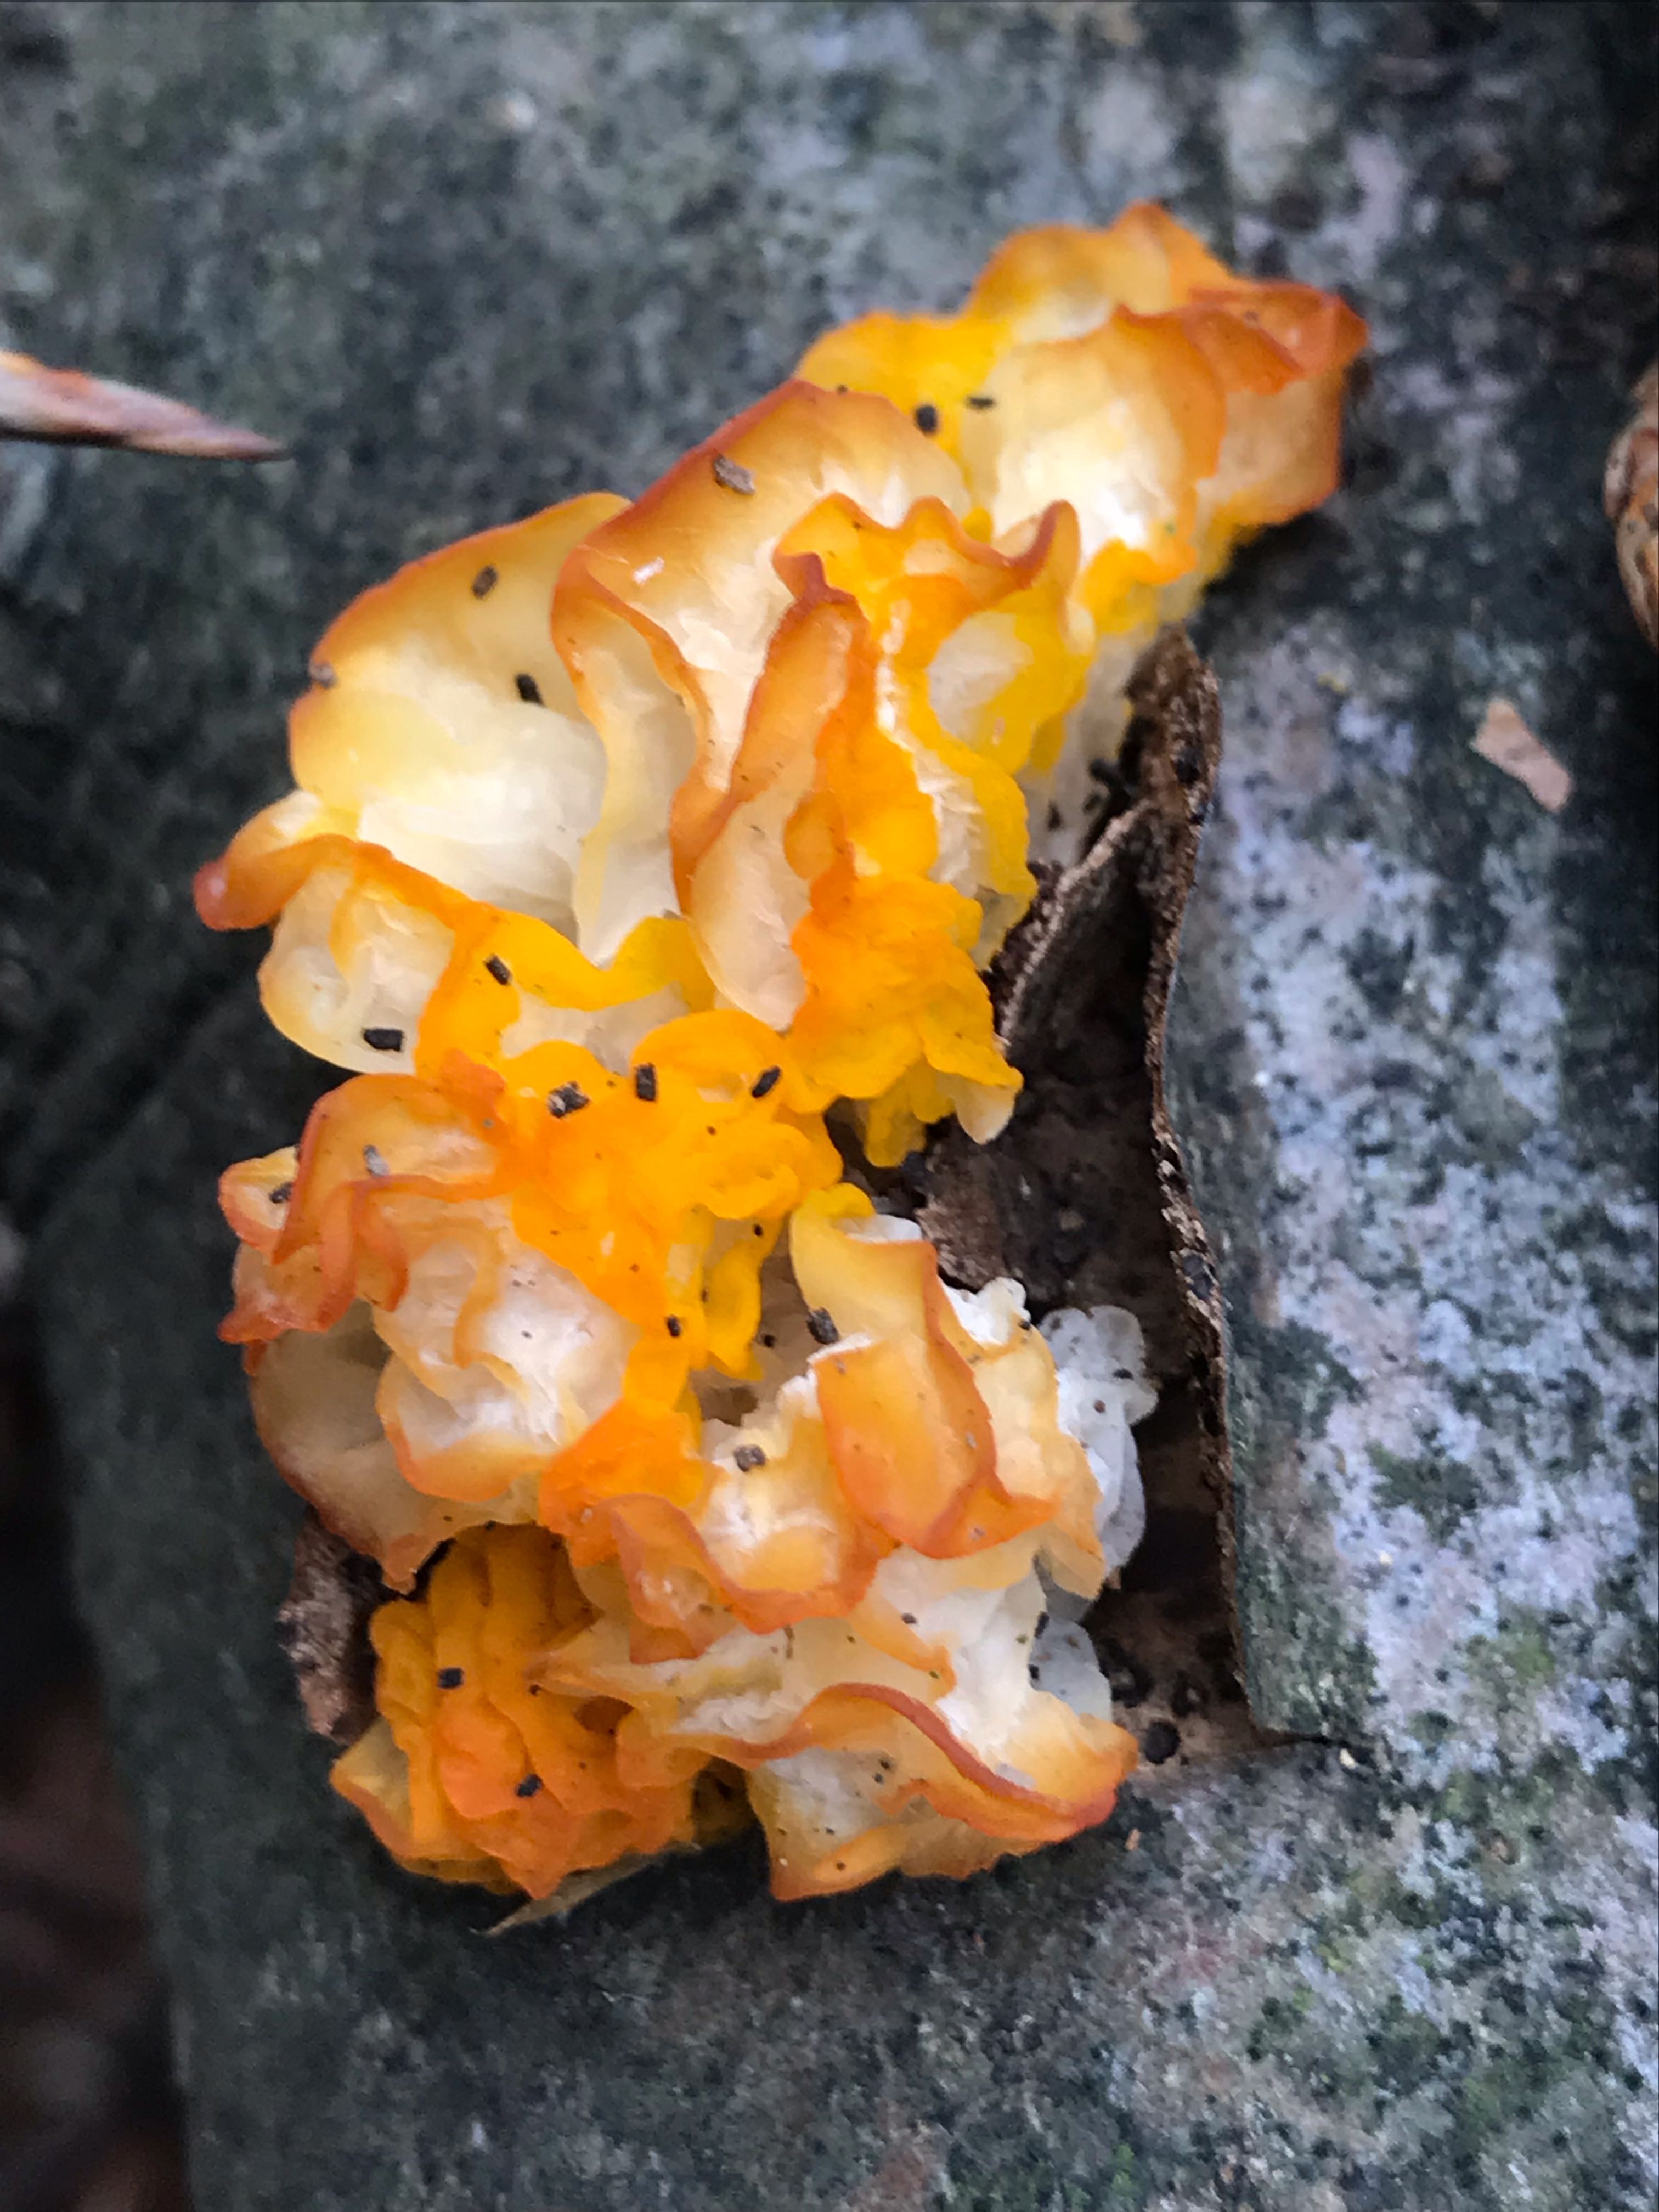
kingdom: Fungi
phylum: Basidiomycota
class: Tremellomycetes
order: Tremellales
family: Tremellaceae
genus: Tremella
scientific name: Tremella mesenterica
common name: gul bævresvamp
